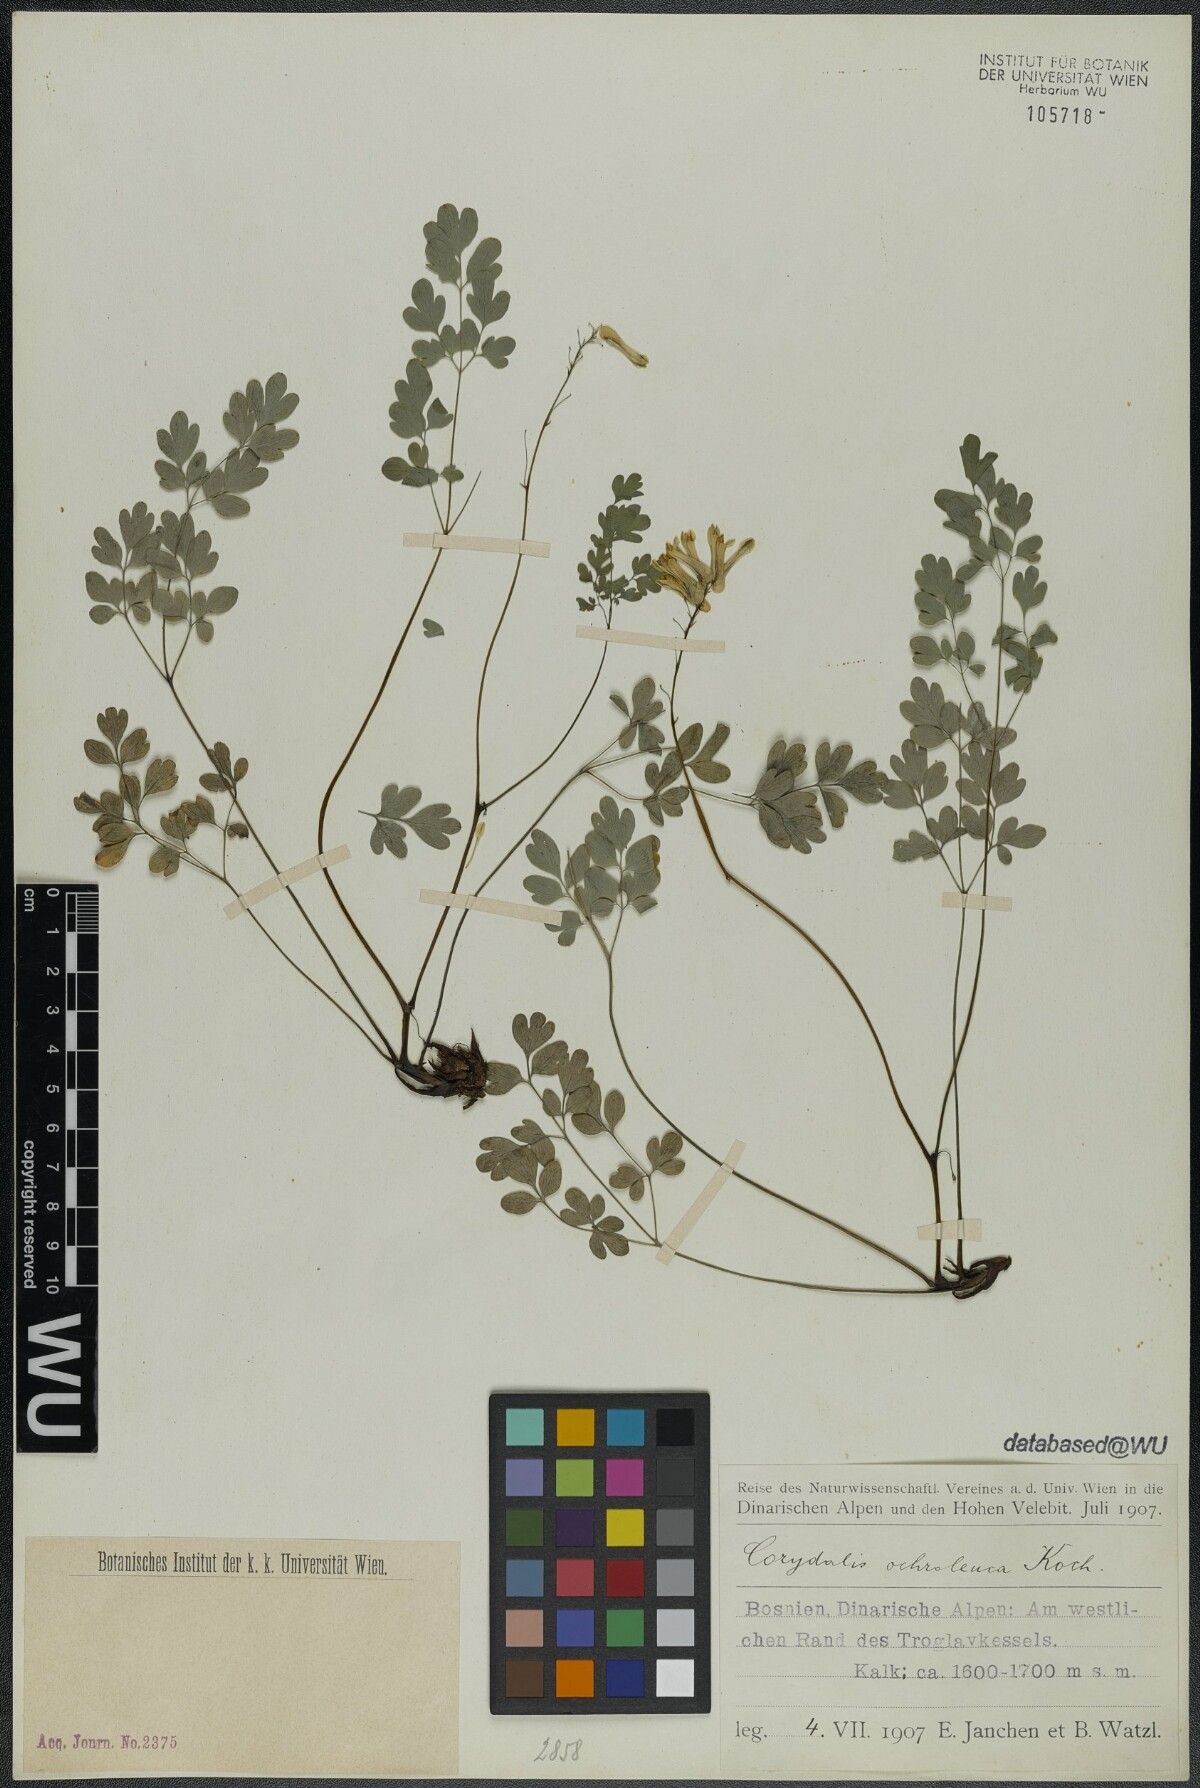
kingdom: Plantae
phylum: Tracheophyta
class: Magnoliopsida
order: Ranunculales
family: Papaveraceae
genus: Pseudofumaria
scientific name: Pseudofumaria alba
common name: Pale corydalis
